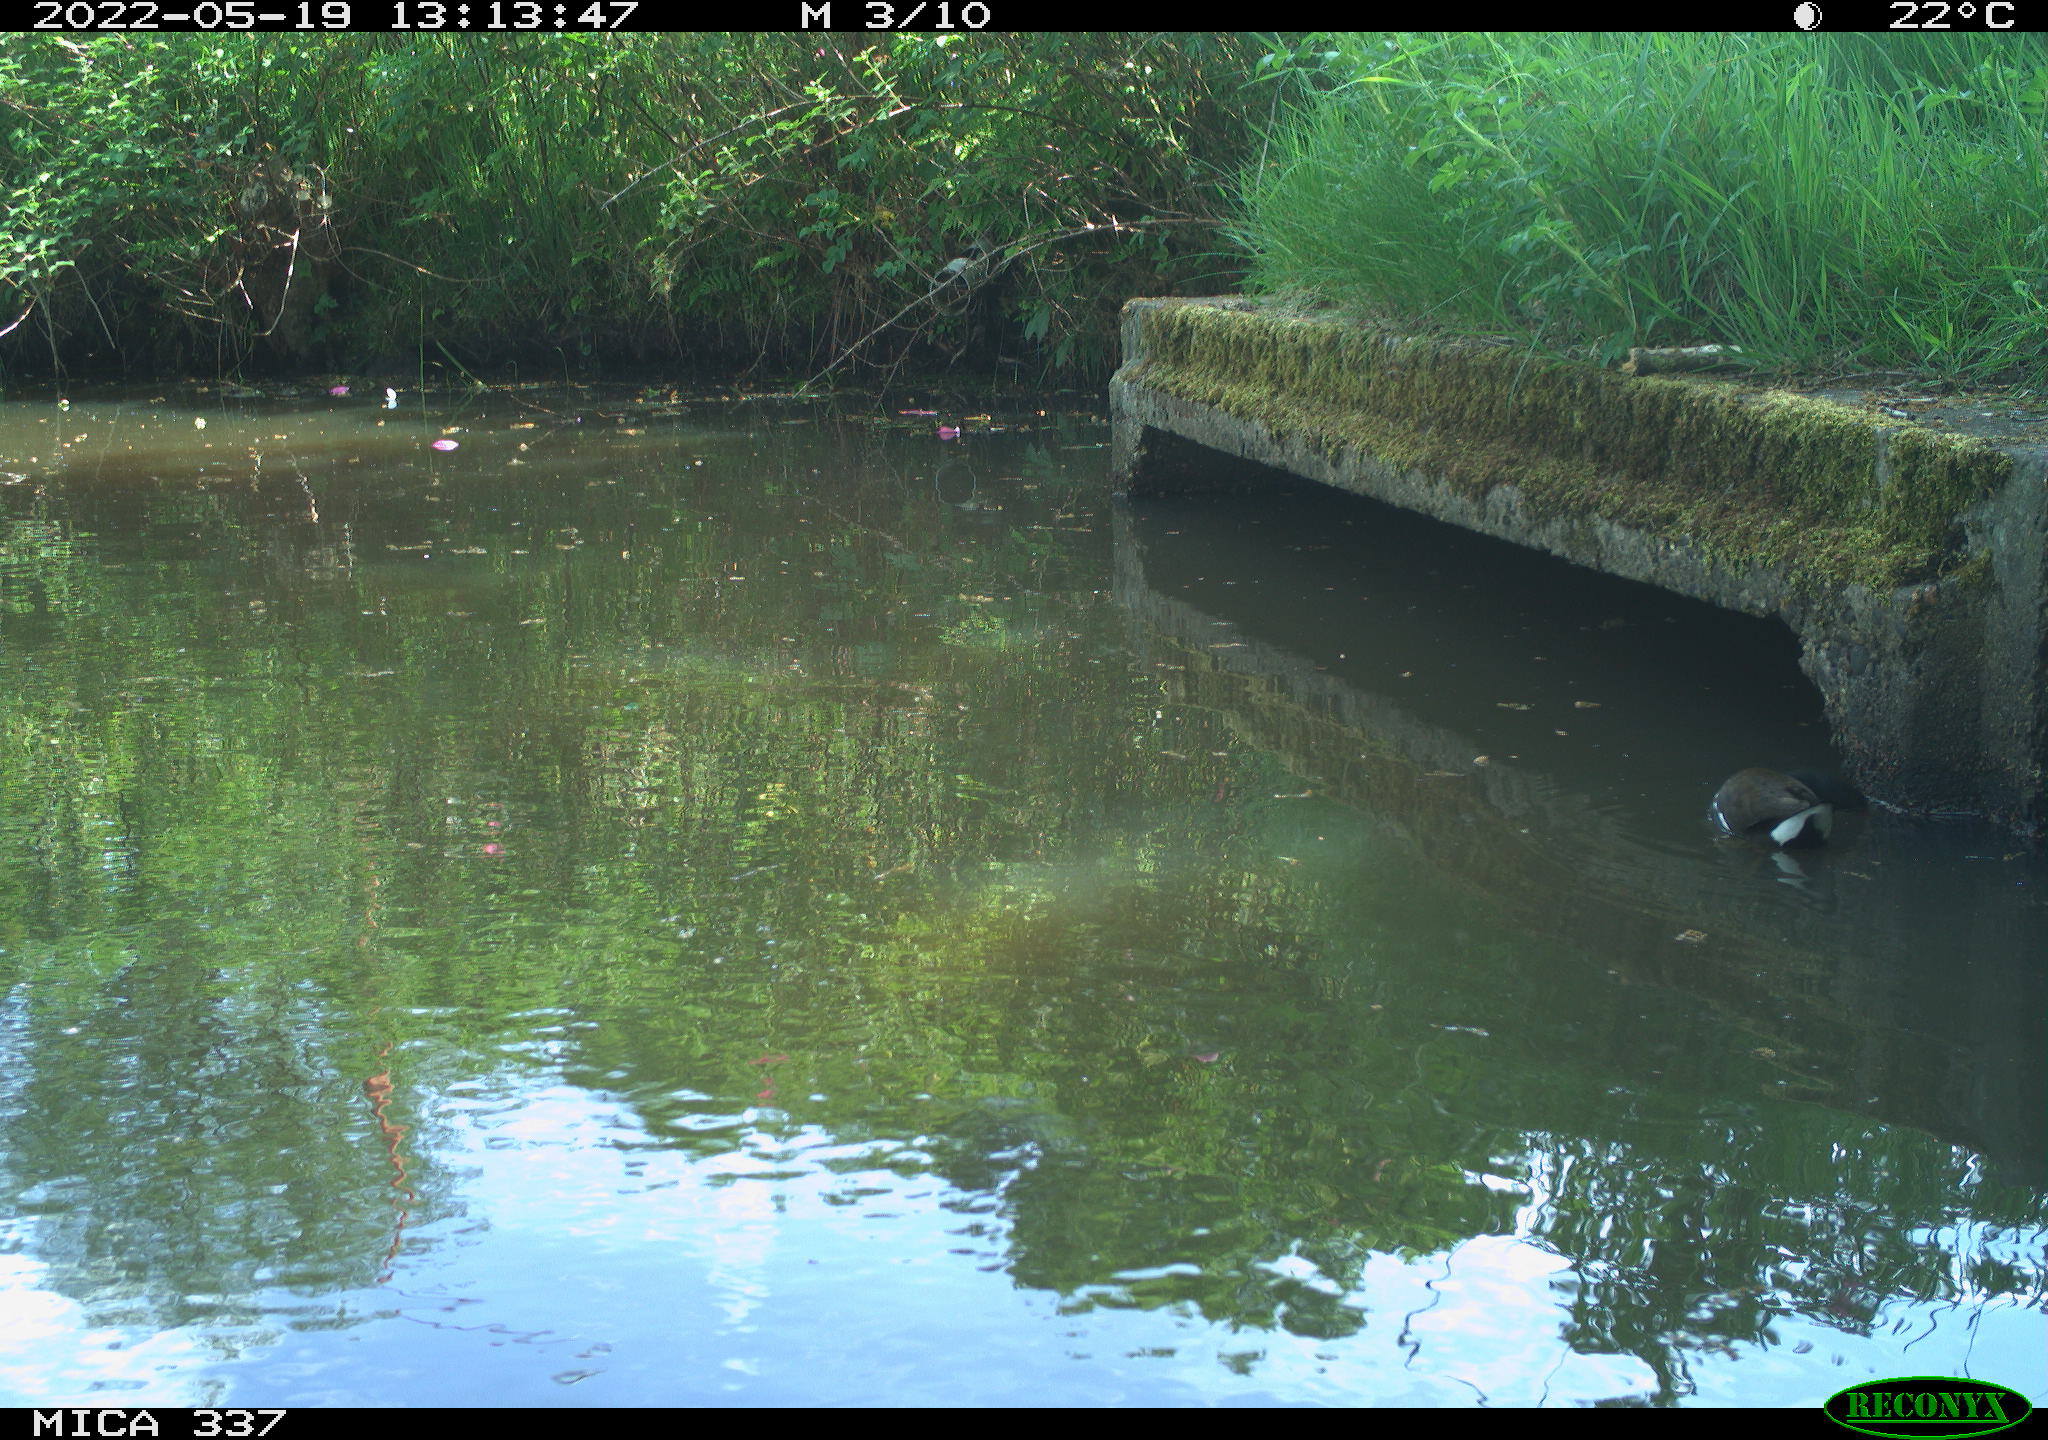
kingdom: Animalia
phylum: Chordata
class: Aves
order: Gruiformes
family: Rallidae
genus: Gallinula
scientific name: Gallinula chloropus
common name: Common moorhen
